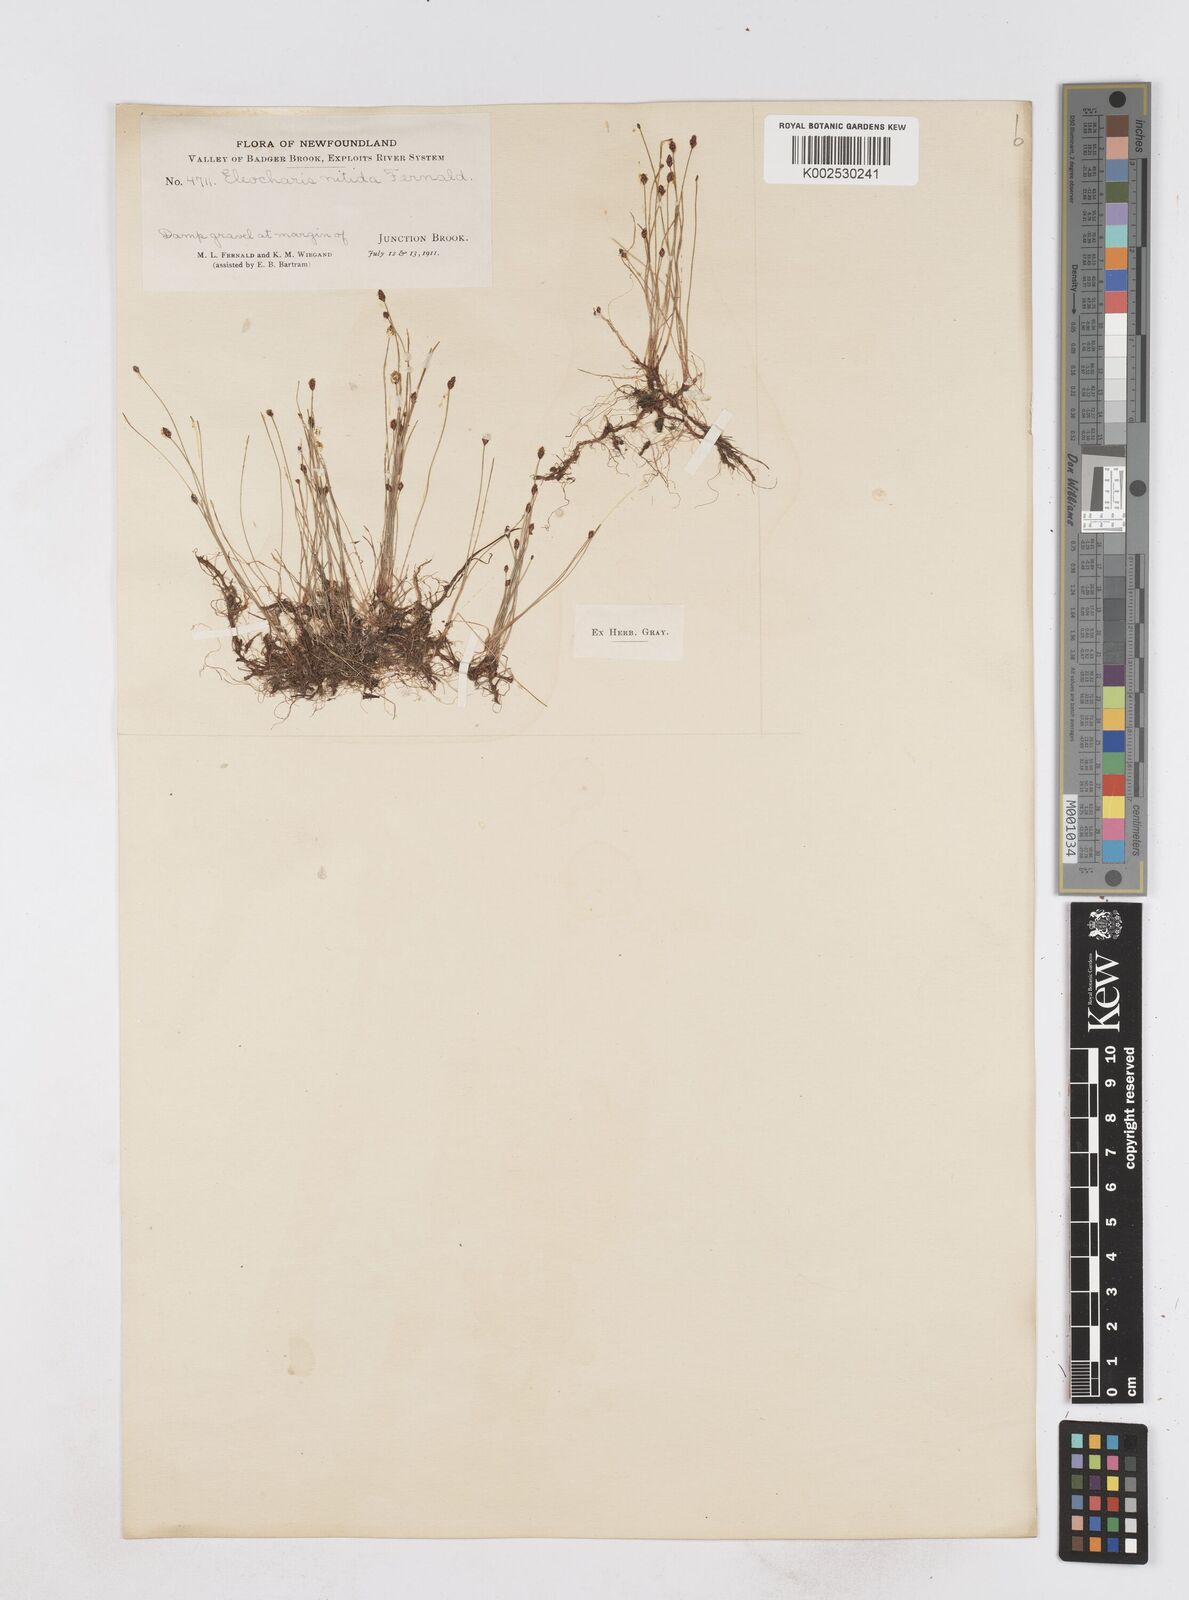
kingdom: Plantae
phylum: Tracheophyta
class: Liliopsida
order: Poales
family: Cyperaceae
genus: Eleocharis
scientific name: Eleocharis nitida
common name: Neat spikerush
